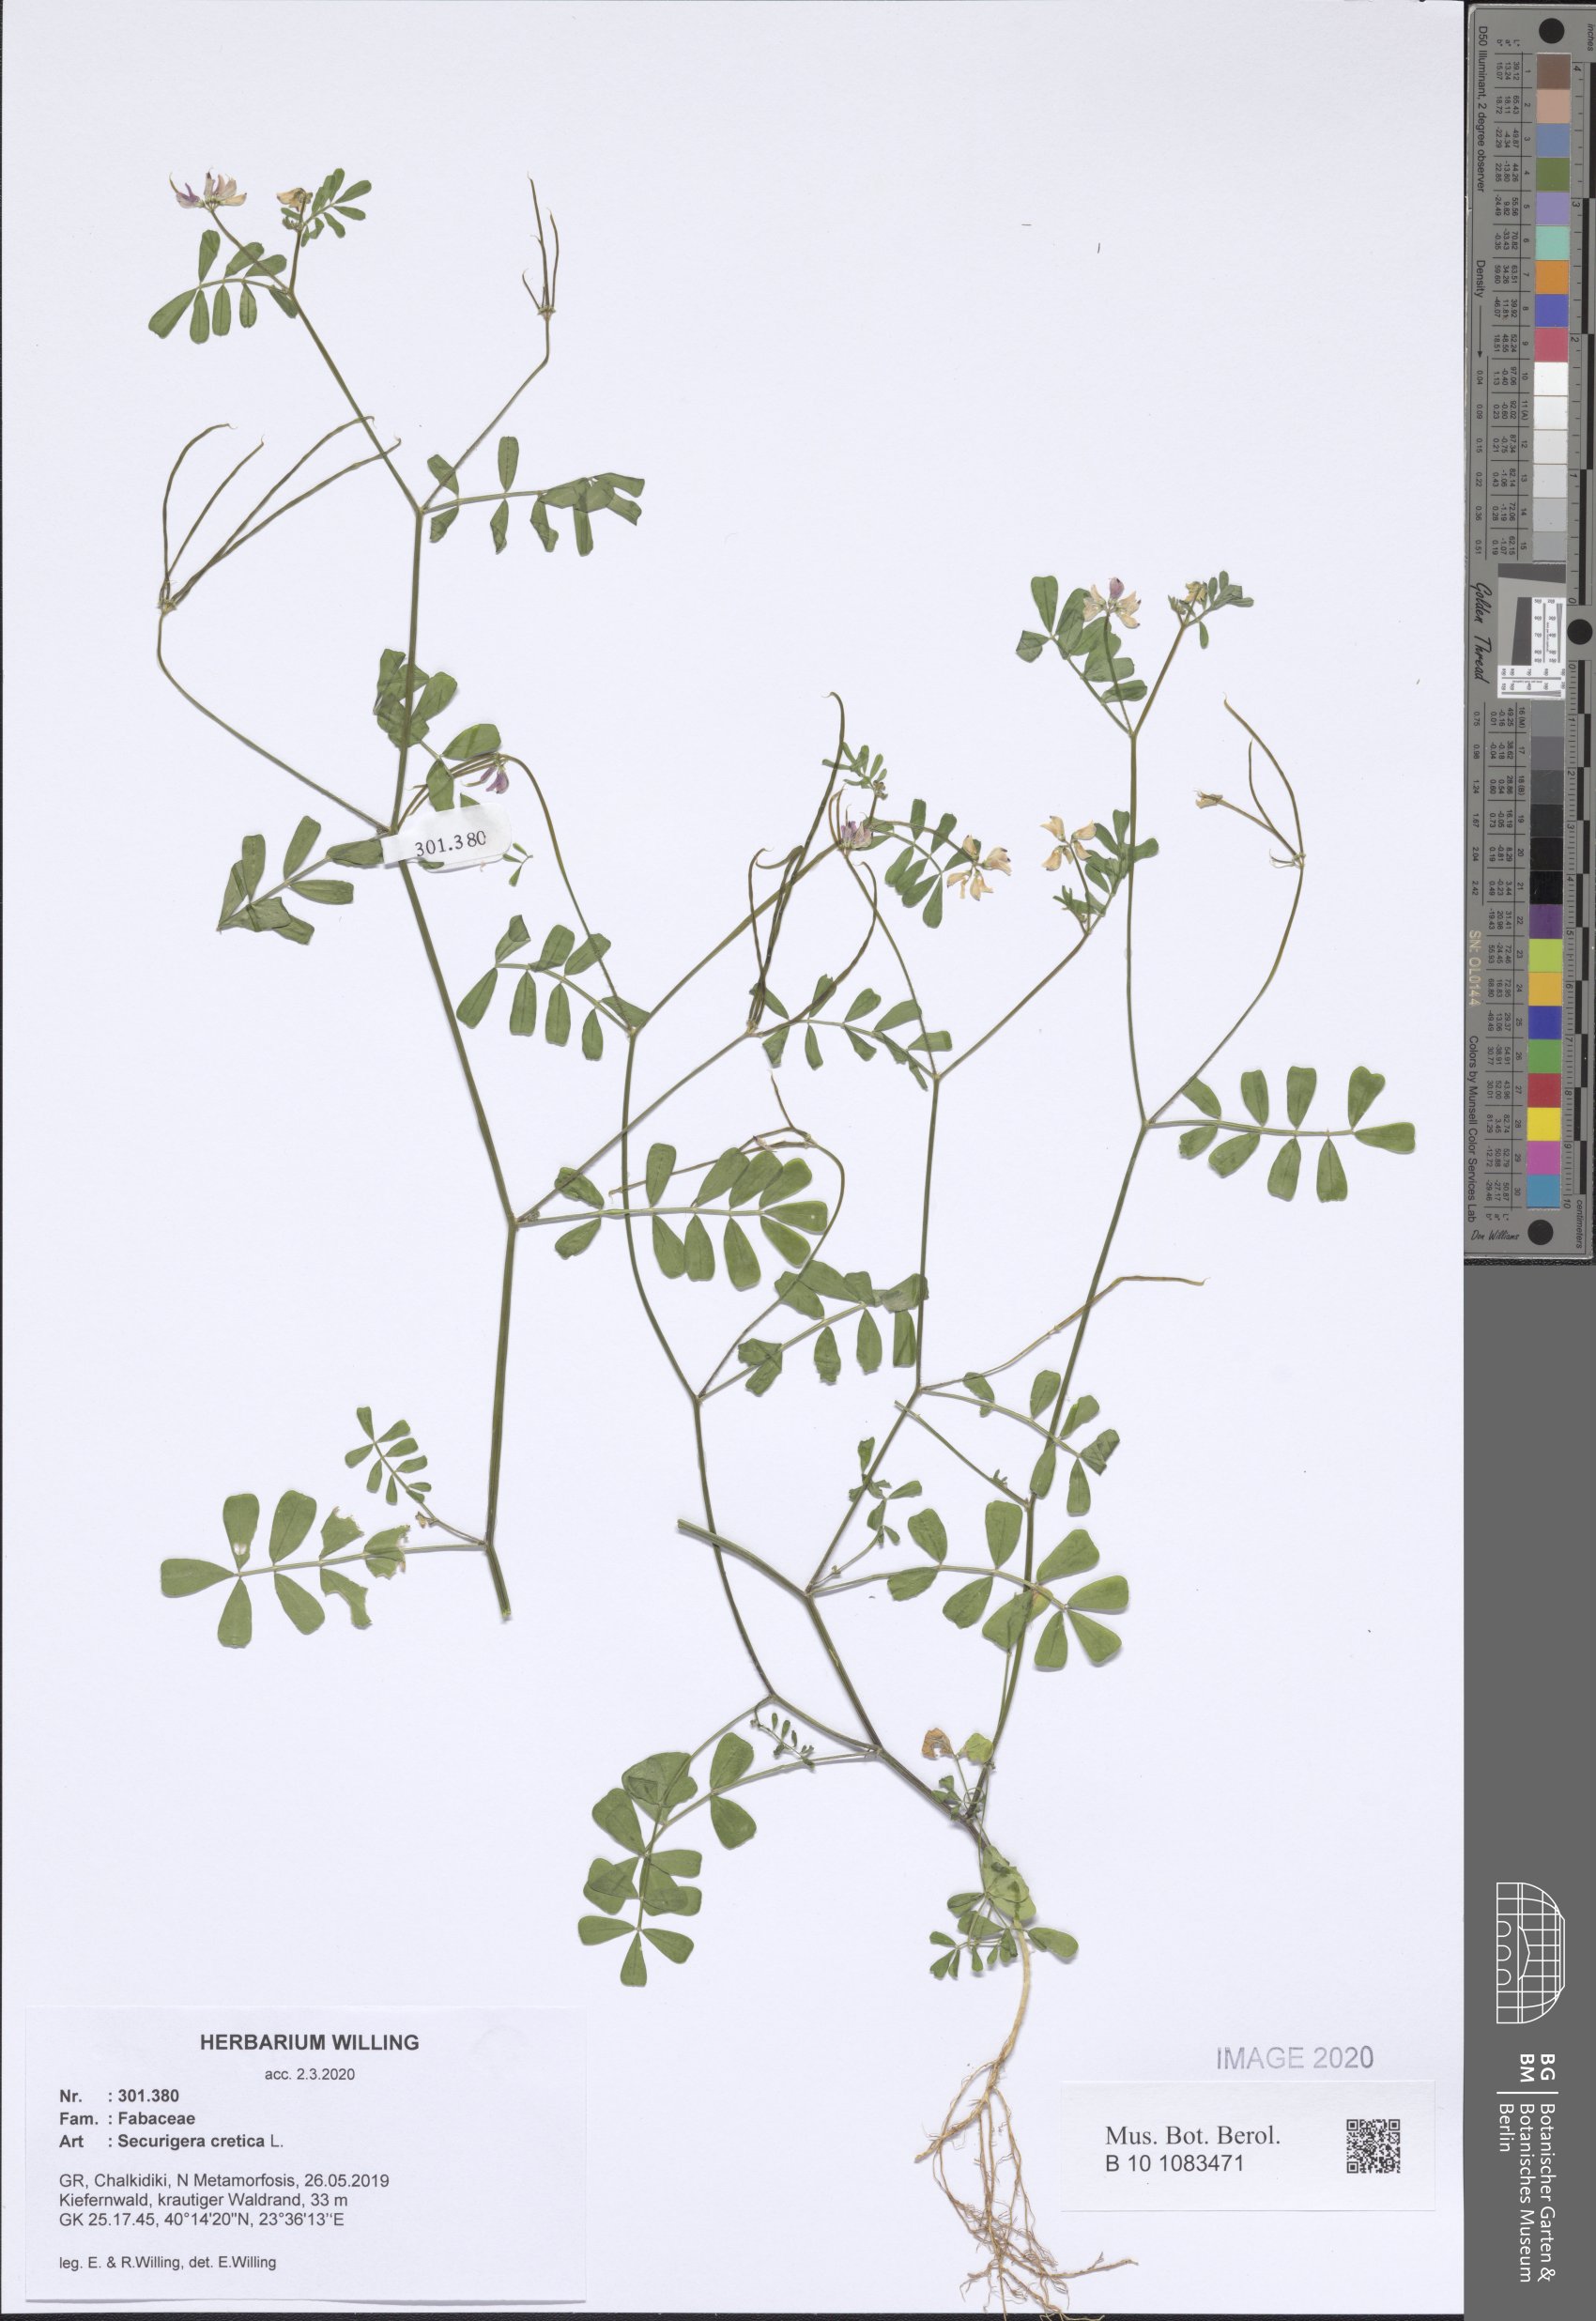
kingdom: Plantae
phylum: Tracheophyta
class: Magnoliopsida
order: Fabales
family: Fabaceae
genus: Coronilla
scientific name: Coronilla cretica
